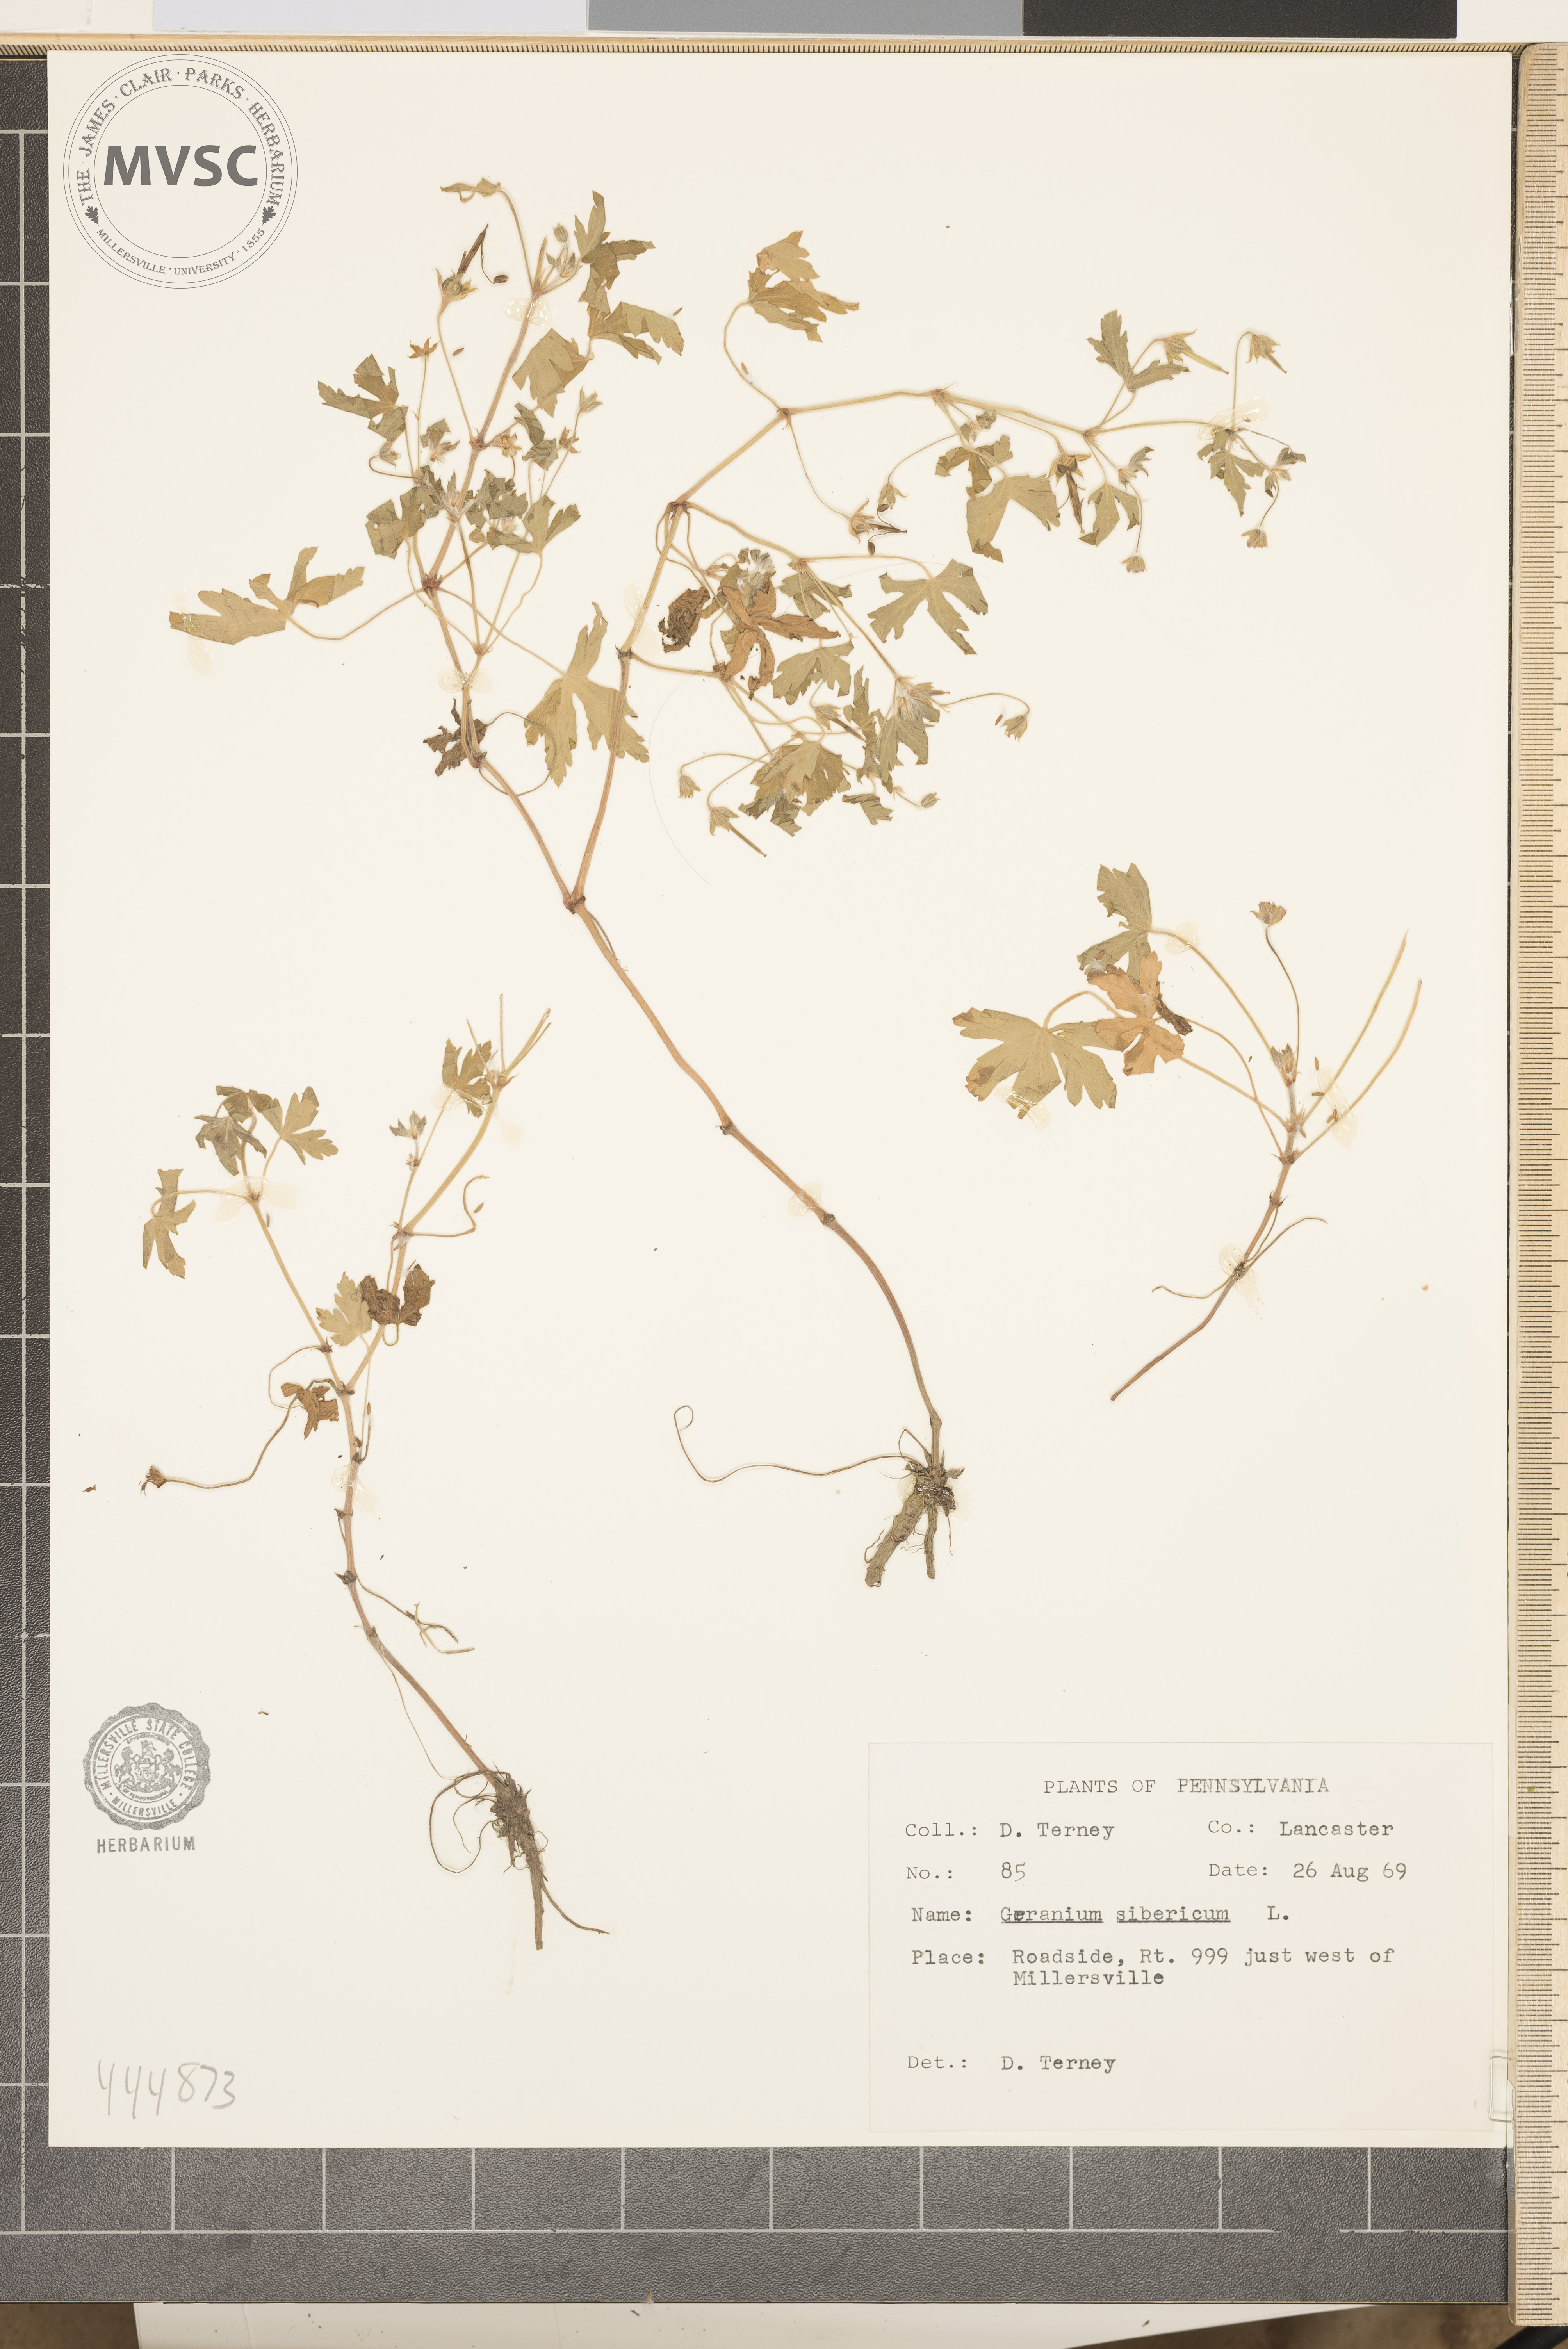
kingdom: Plantae
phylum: Tracheophyta
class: Magnoliopsida
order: Geraniales
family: Geraniaceae
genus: Geranium
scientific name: Geranium sibiricum
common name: Siberian crane's-bill
